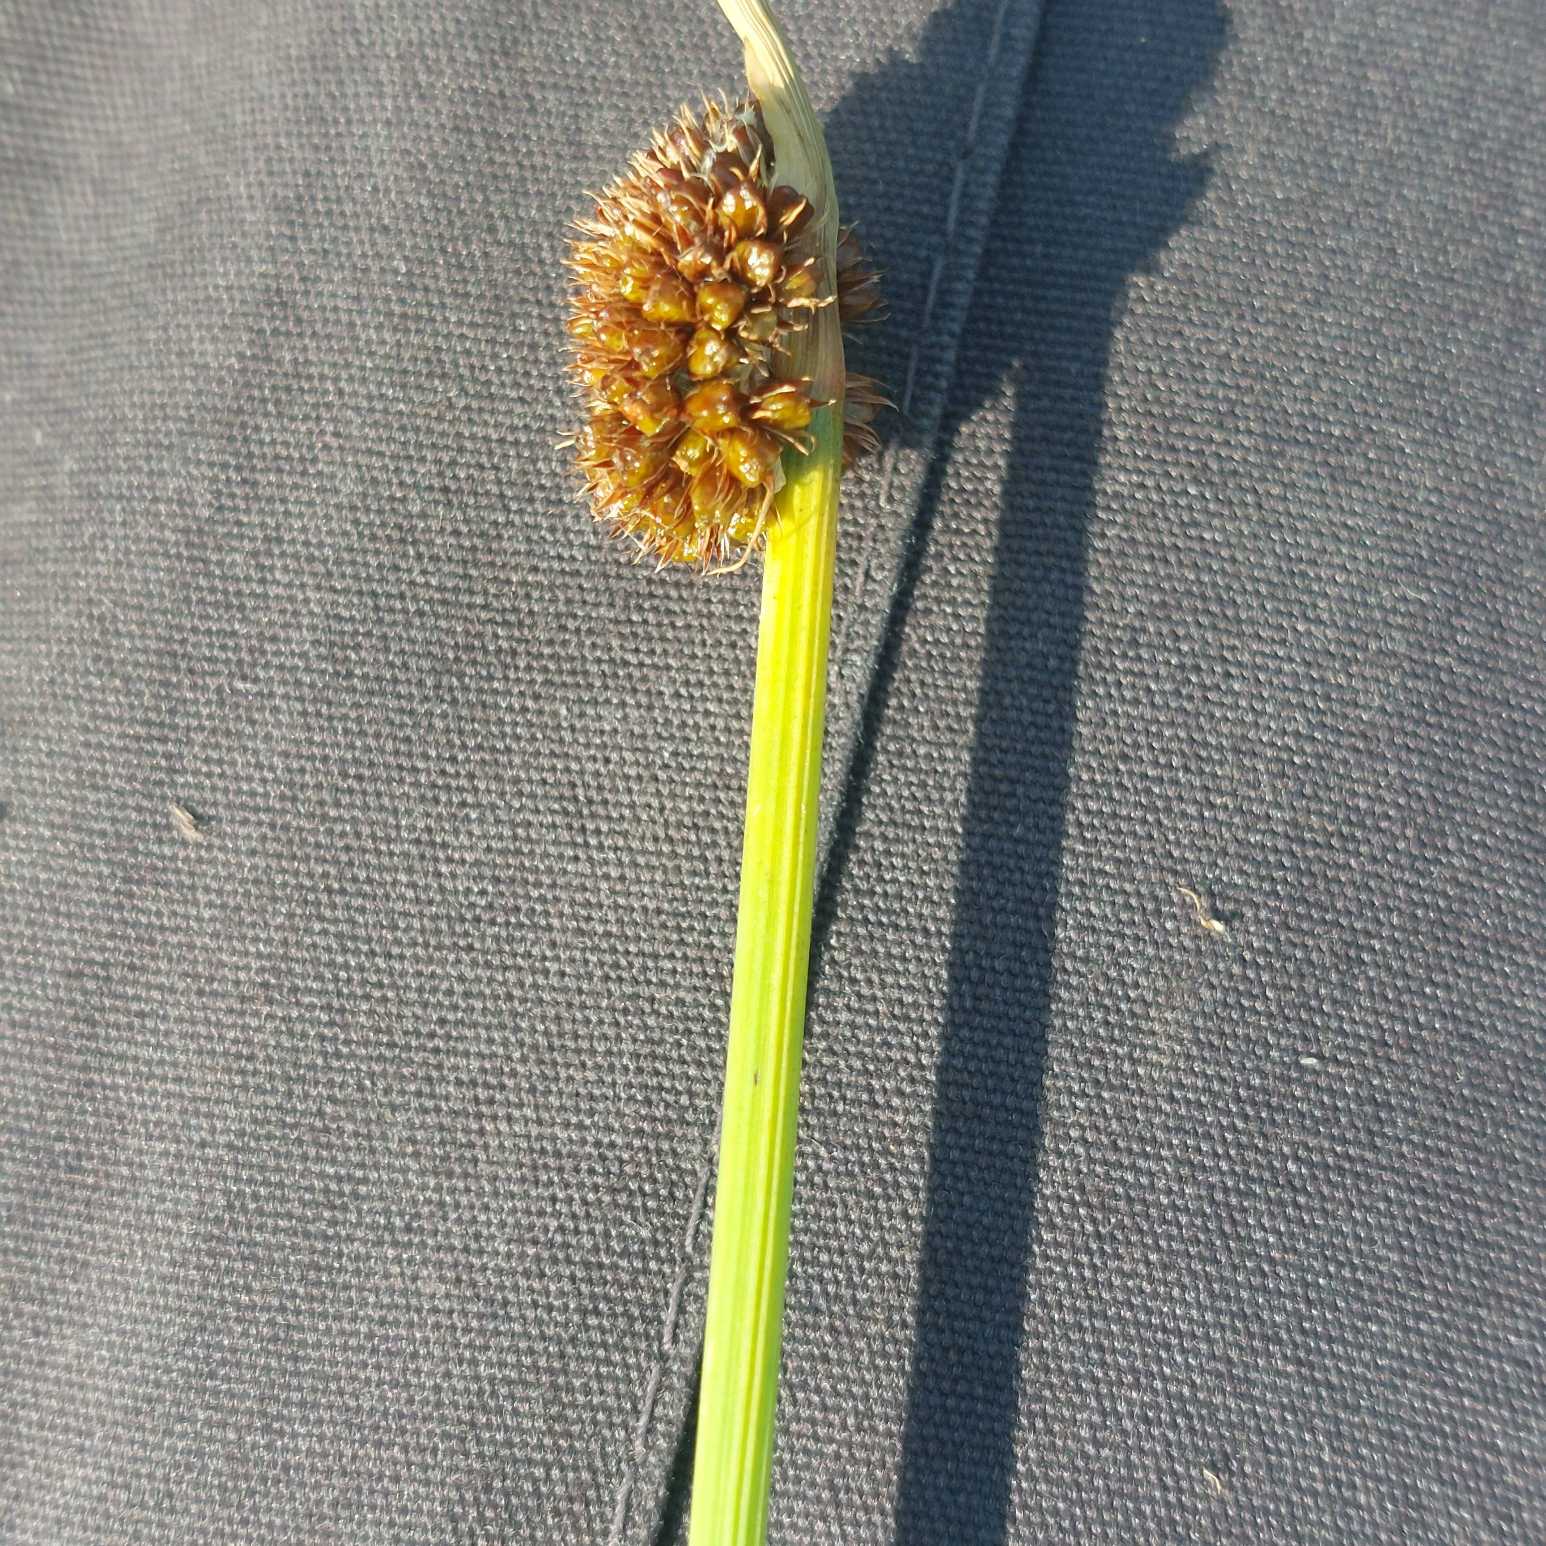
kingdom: Plantae
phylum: Tracheophyta
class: Liliopsida
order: Poales
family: Juncaceae
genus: Juncus
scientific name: Juncus conglomeratus
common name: Knop-siv
